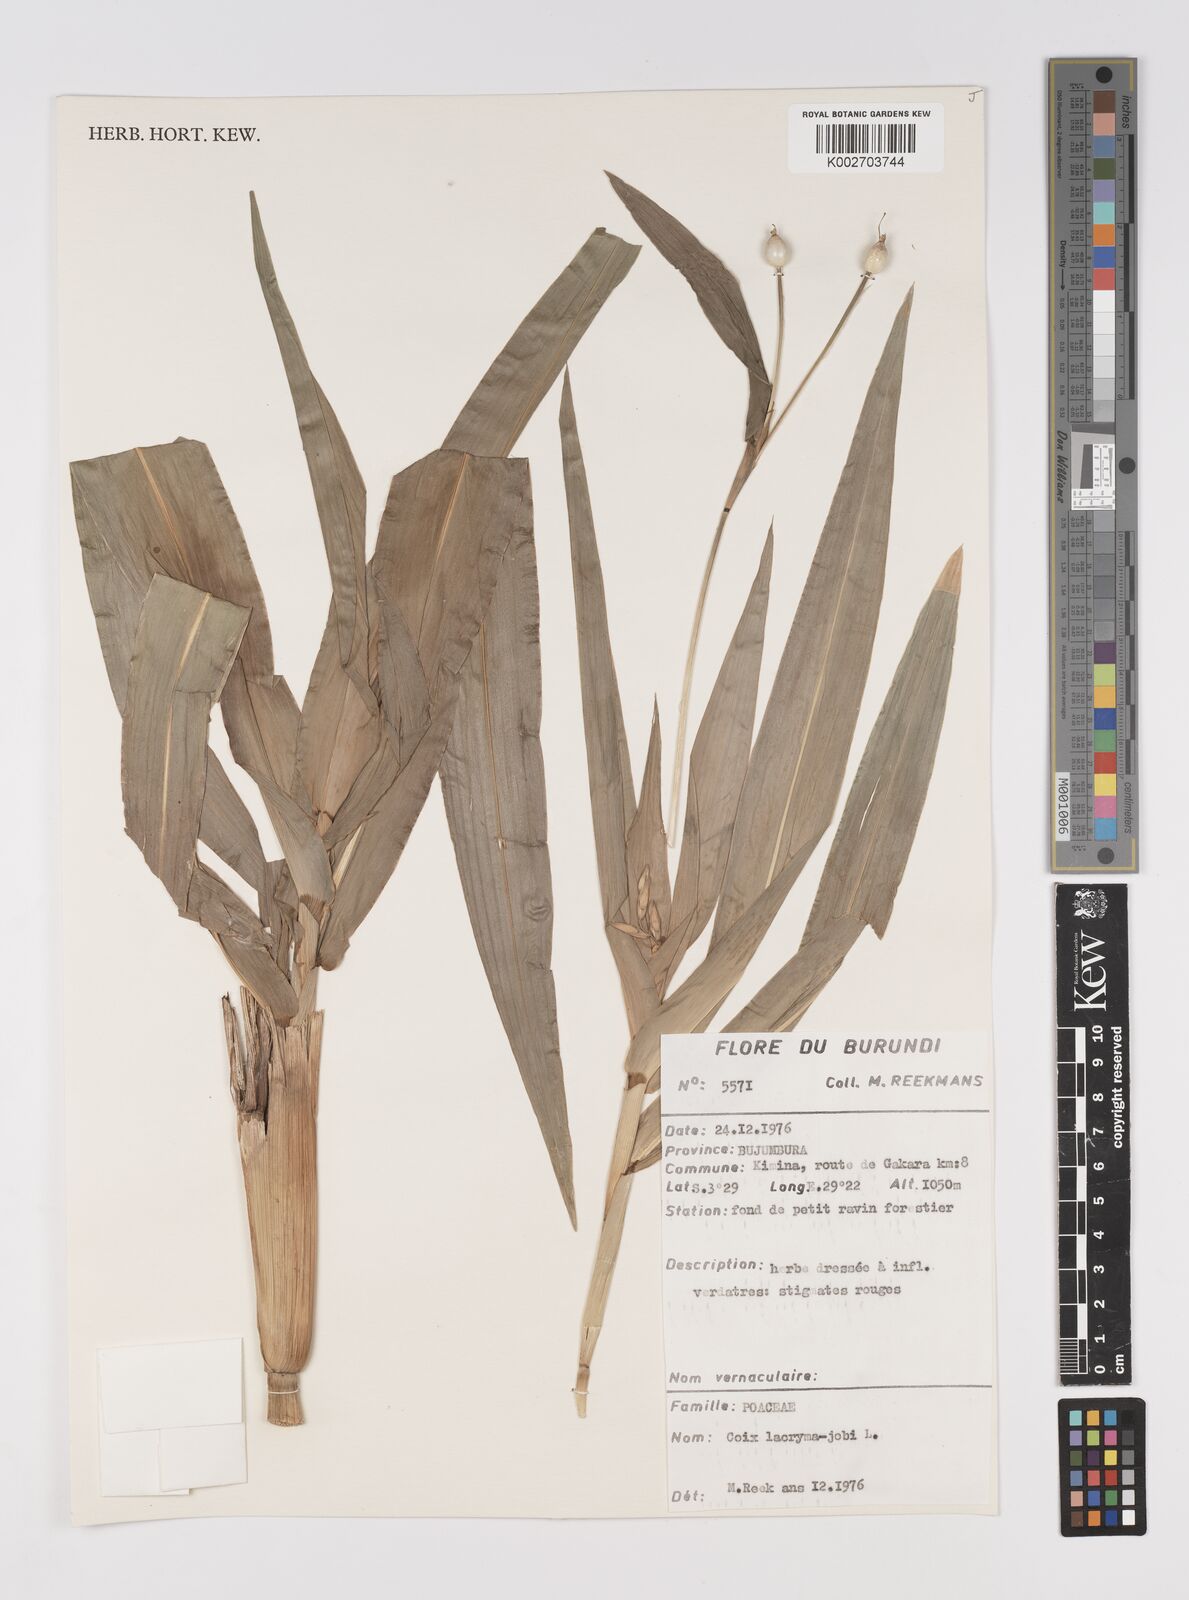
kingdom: Plantae
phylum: Tracheophyta
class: Liliopsida
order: Poales
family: Poaceae
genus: Coix
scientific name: Coix lacryma-jobi
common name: Job's tears
